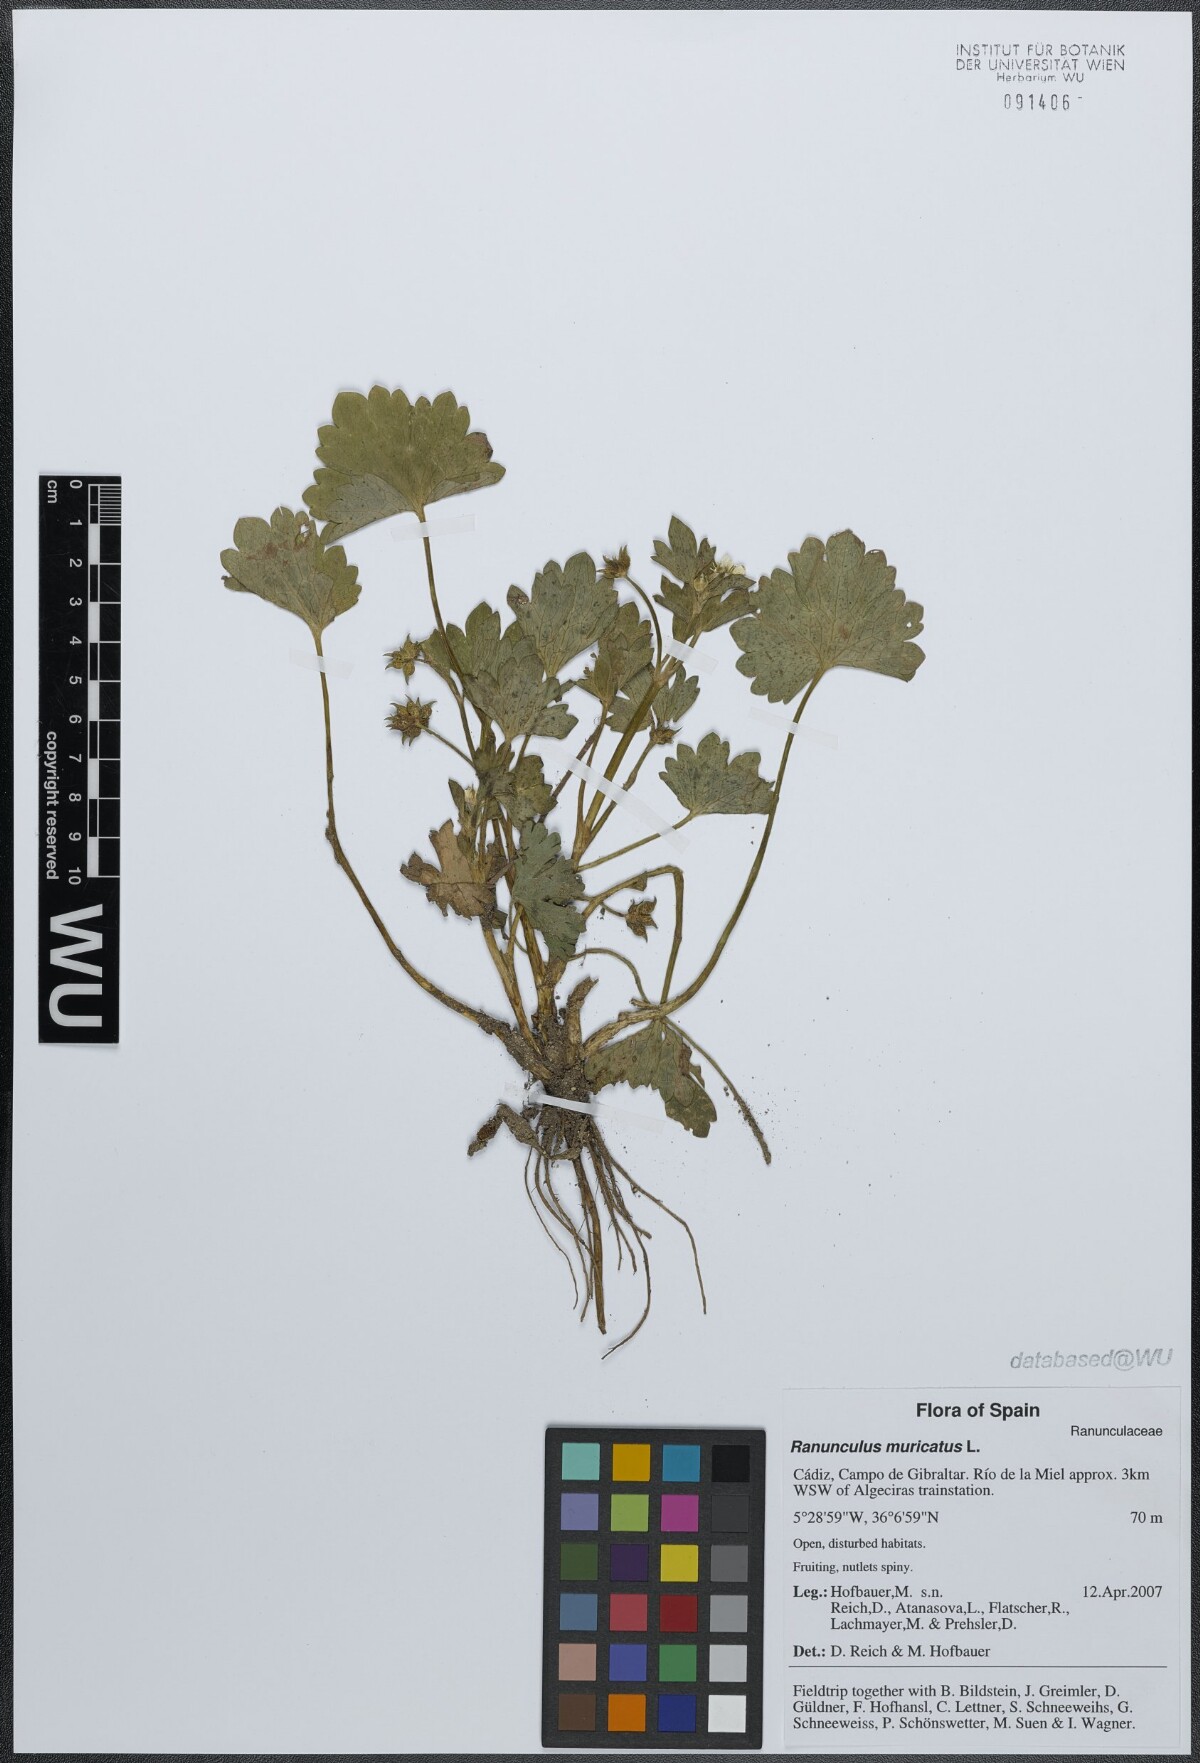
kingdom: Plantae
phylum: Tracheophyta
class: Magnoliopsida
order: Ranunculales
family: Ranunculaceae
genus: Ranunculus
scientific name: Ranunculus muricatus
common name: Rough-fruited buttercup
